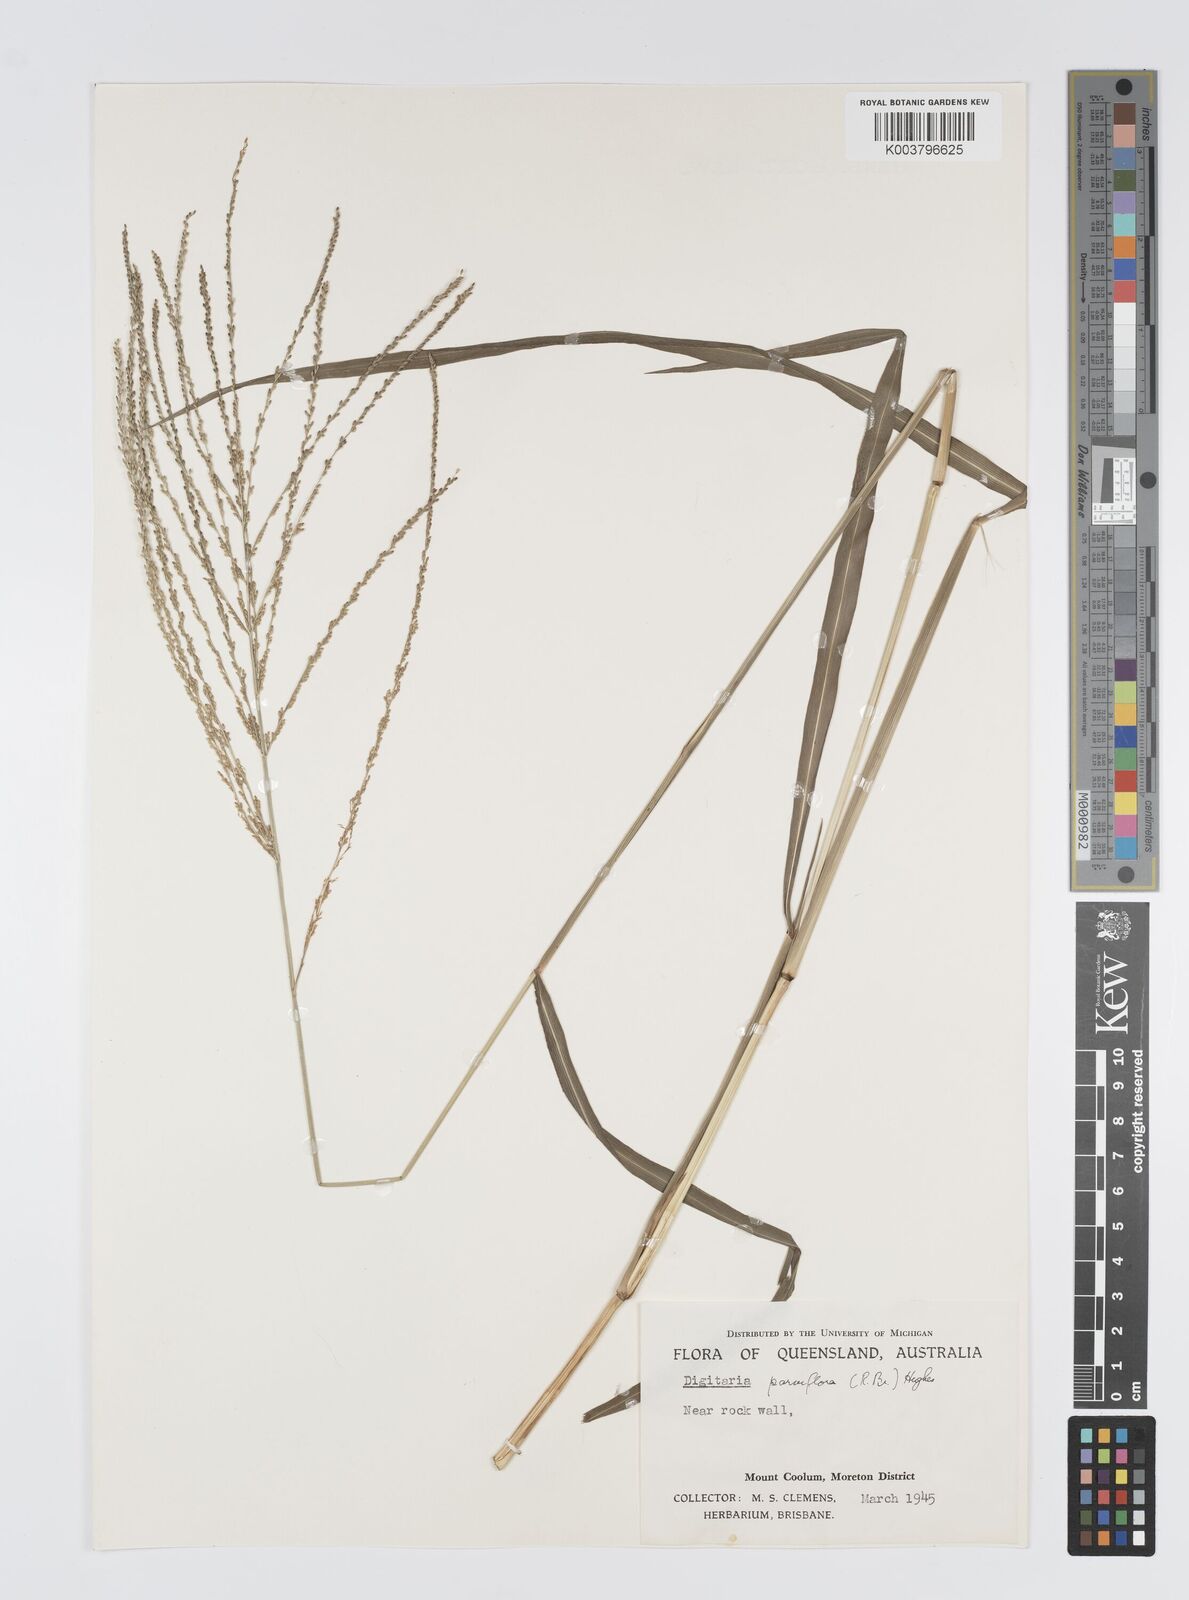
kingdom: Plantae
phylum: Tracheophyta
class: Liliopsida
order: Poales
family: Poaceae
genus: Digitaria
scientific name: Digitaria parviflora
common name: Small-flower finger grass
